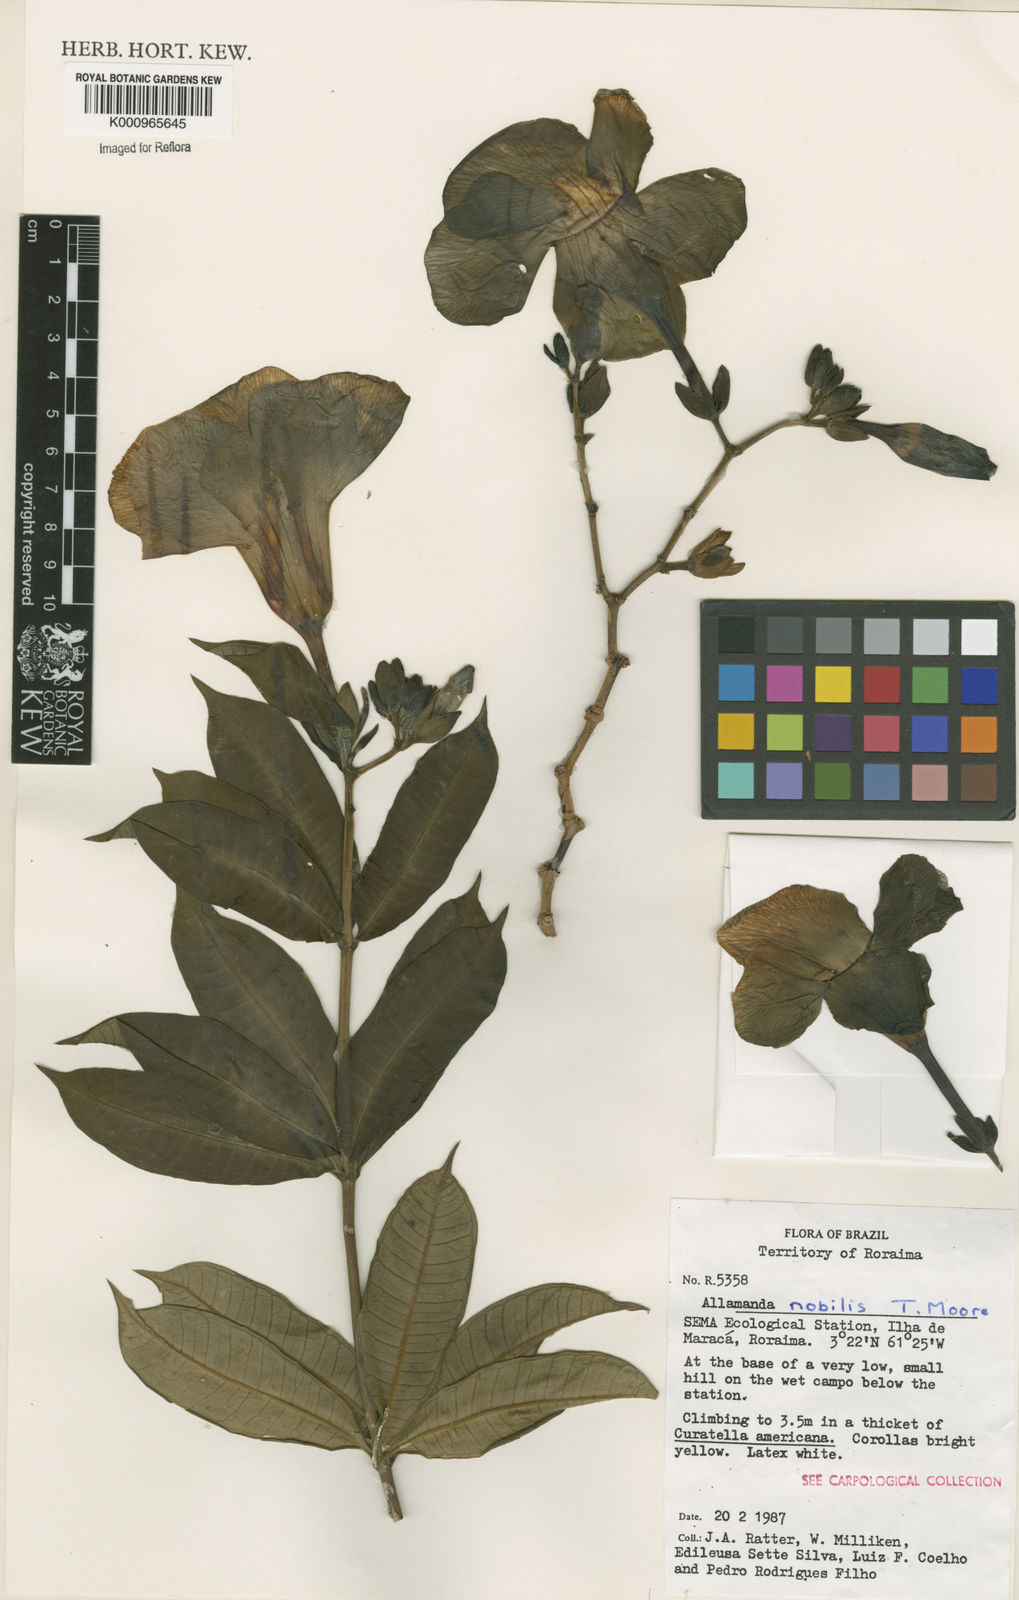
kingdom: Plantae
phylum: Tracheophyta
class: Magnoliopsida
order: Gentianales
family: Apocynaceae
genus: Allamanda
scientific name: Allamanda nobilis
